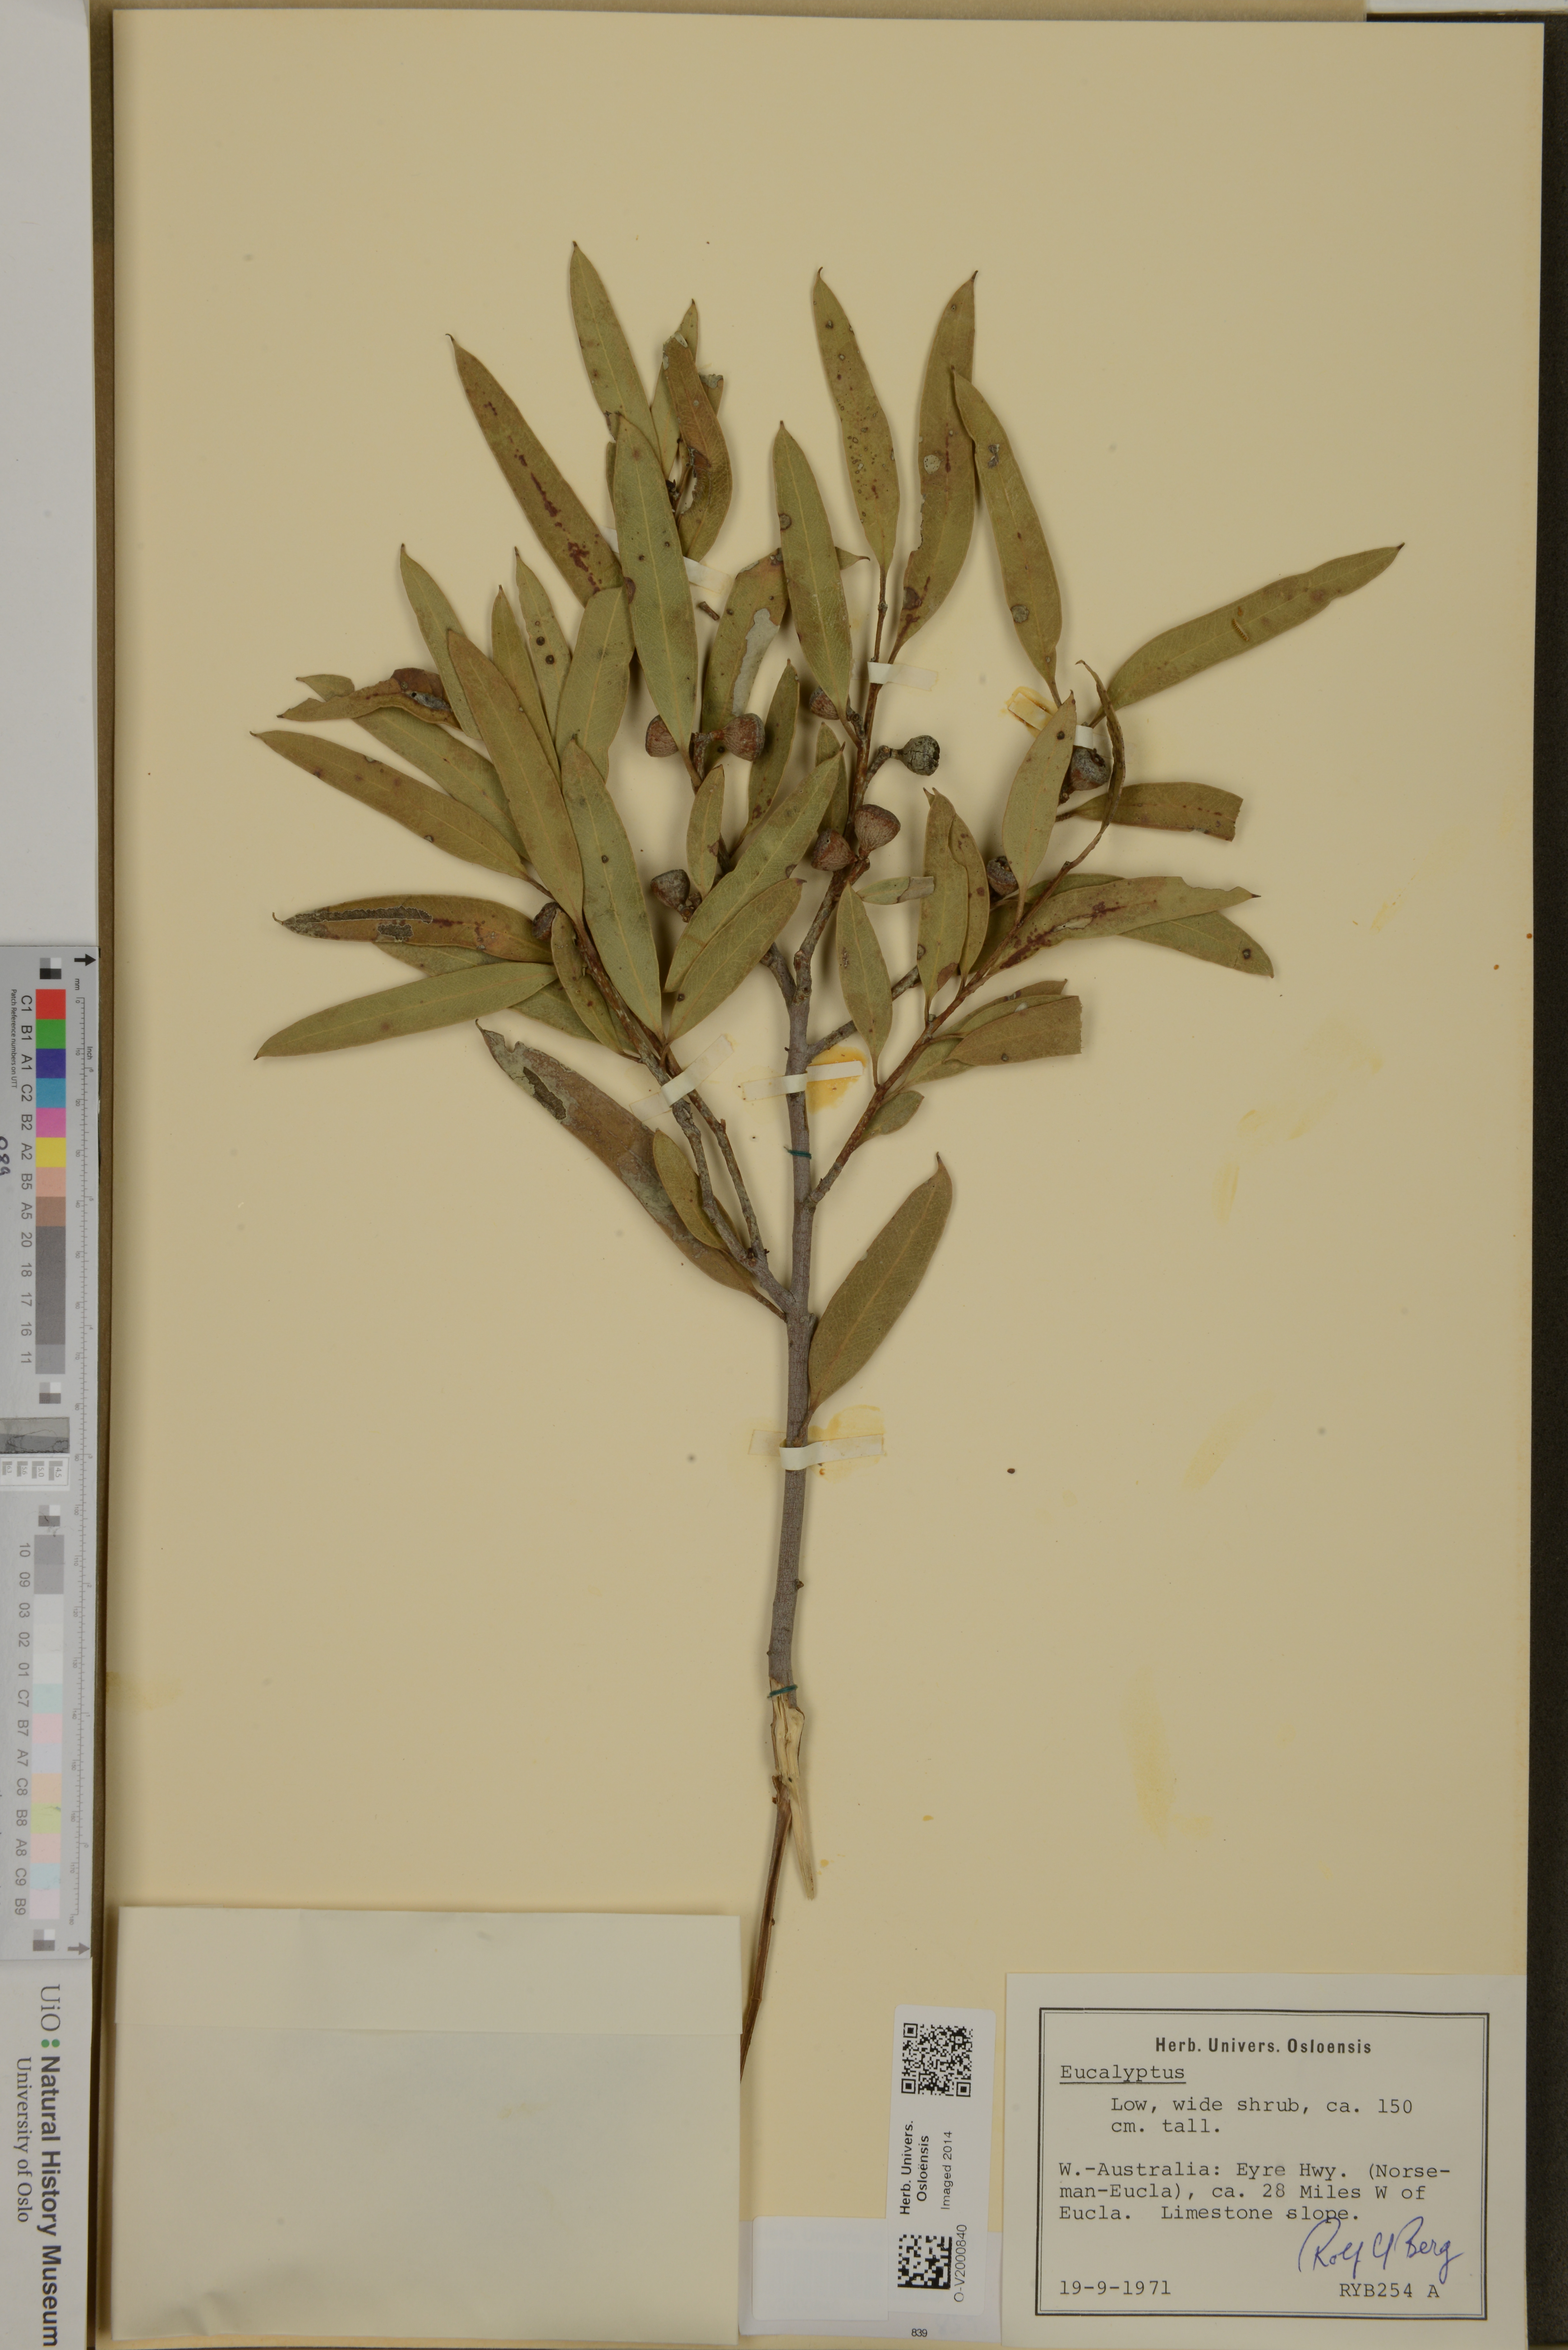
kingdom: Plantae
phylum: Tracheophyta
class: Magnoliopsida
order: Myrtales
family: Myrtaceae
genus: Eucalyptus
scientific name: Eucalyptus
